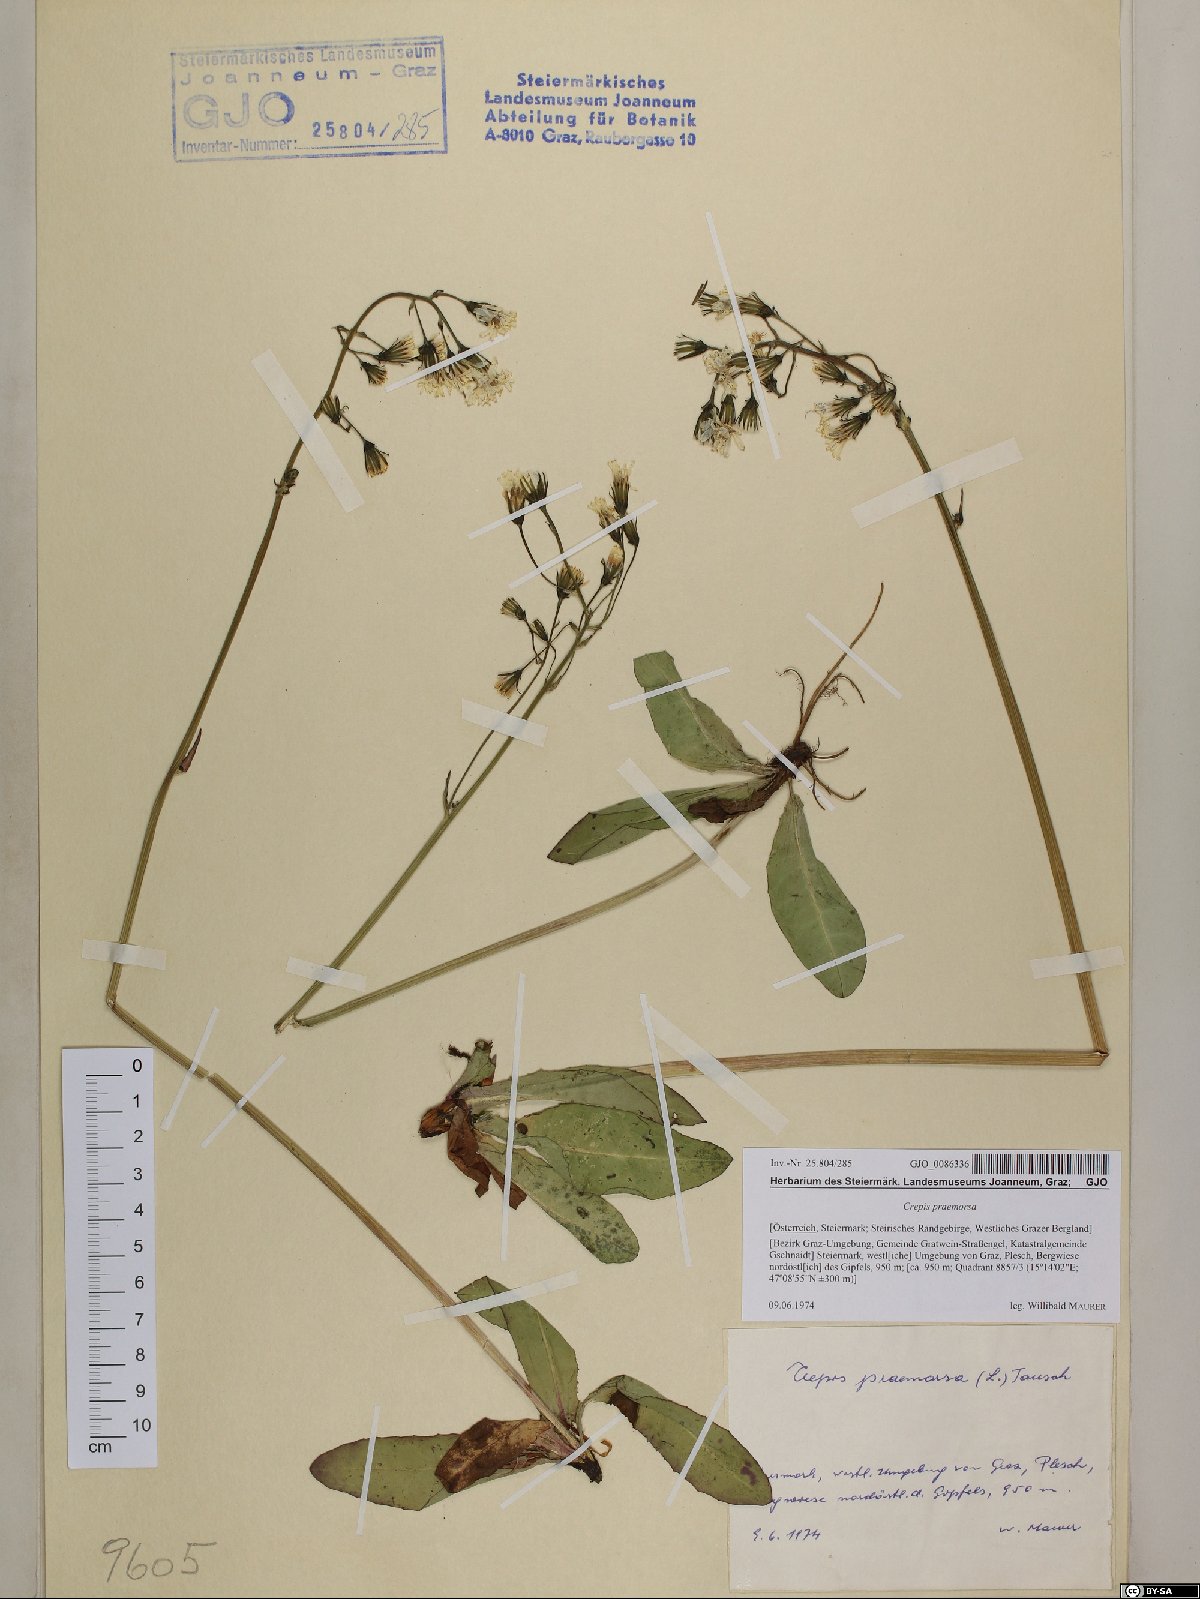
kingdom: Plantae
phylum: Tracheophyta
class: Magnoliopsida
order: Asterales
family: Asteraceae
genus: Crepis
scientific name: Crepis praemorsa
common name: Leafless hawk's-beard
